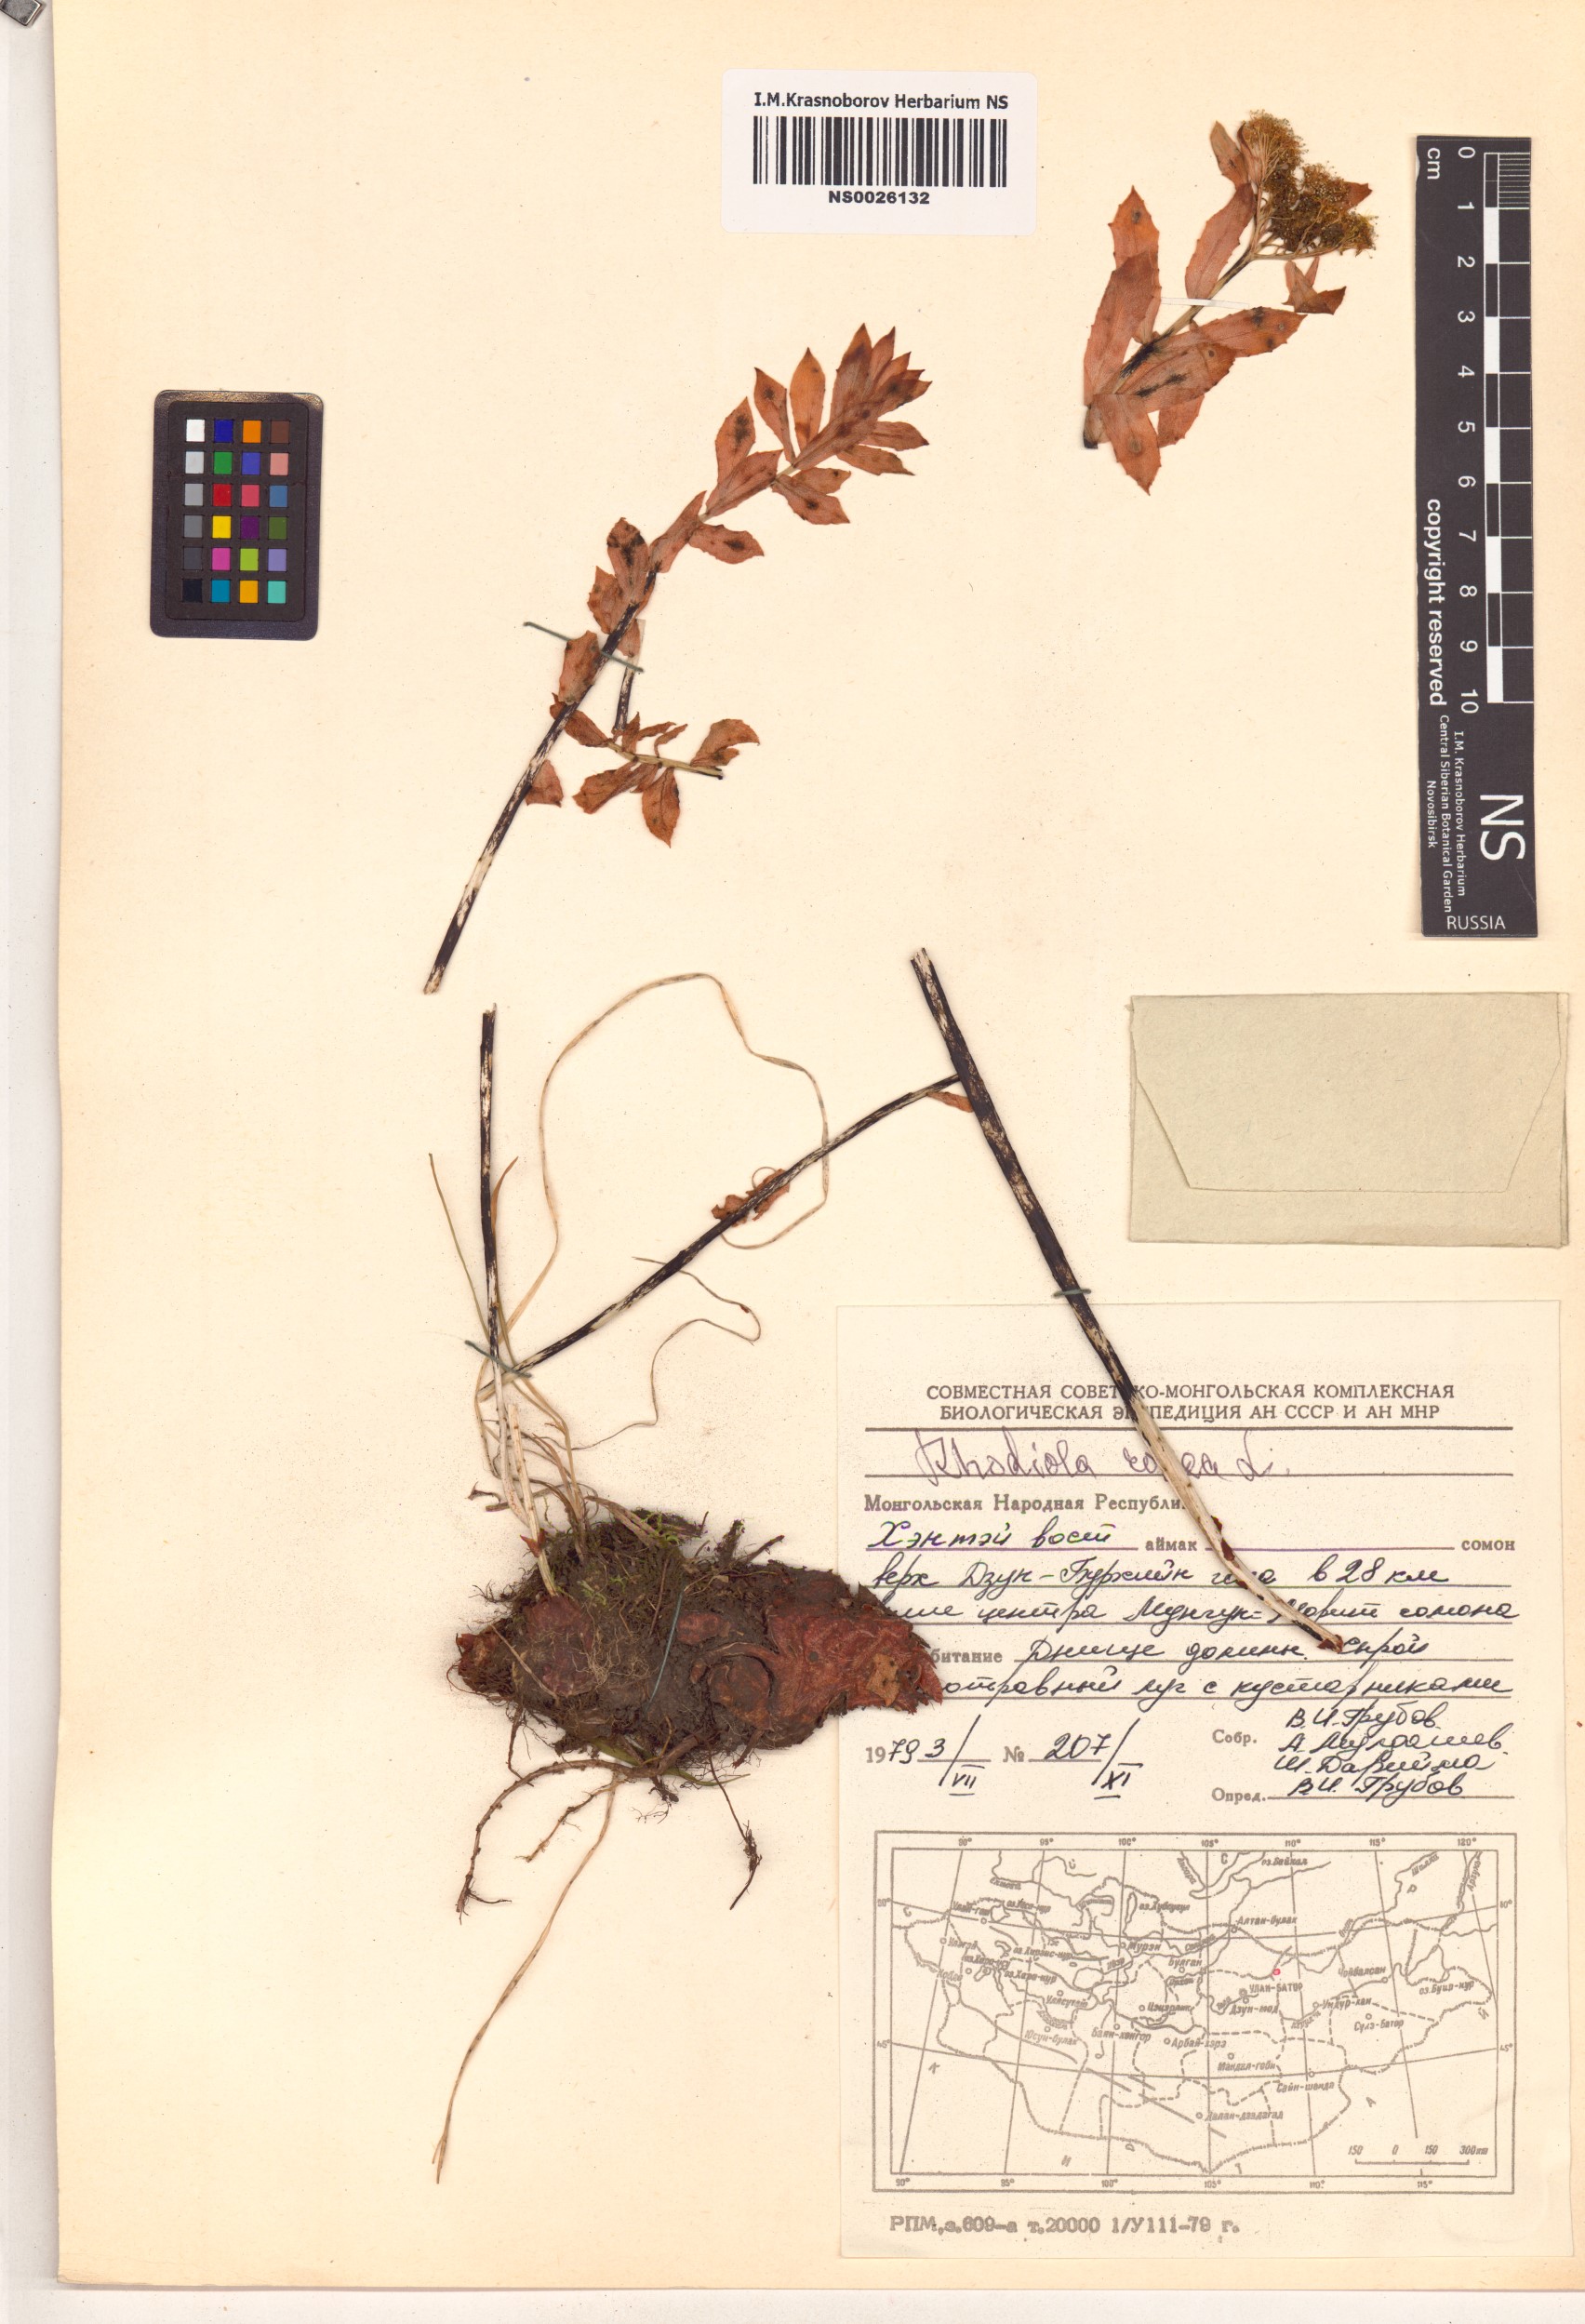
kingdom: Plantae
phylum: Tracheophyta
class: Magnoliopsida
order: Saxifragales
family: Crassulaceae
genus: Rhodiola
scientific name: Rhodiola rosea
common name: Roseroot
